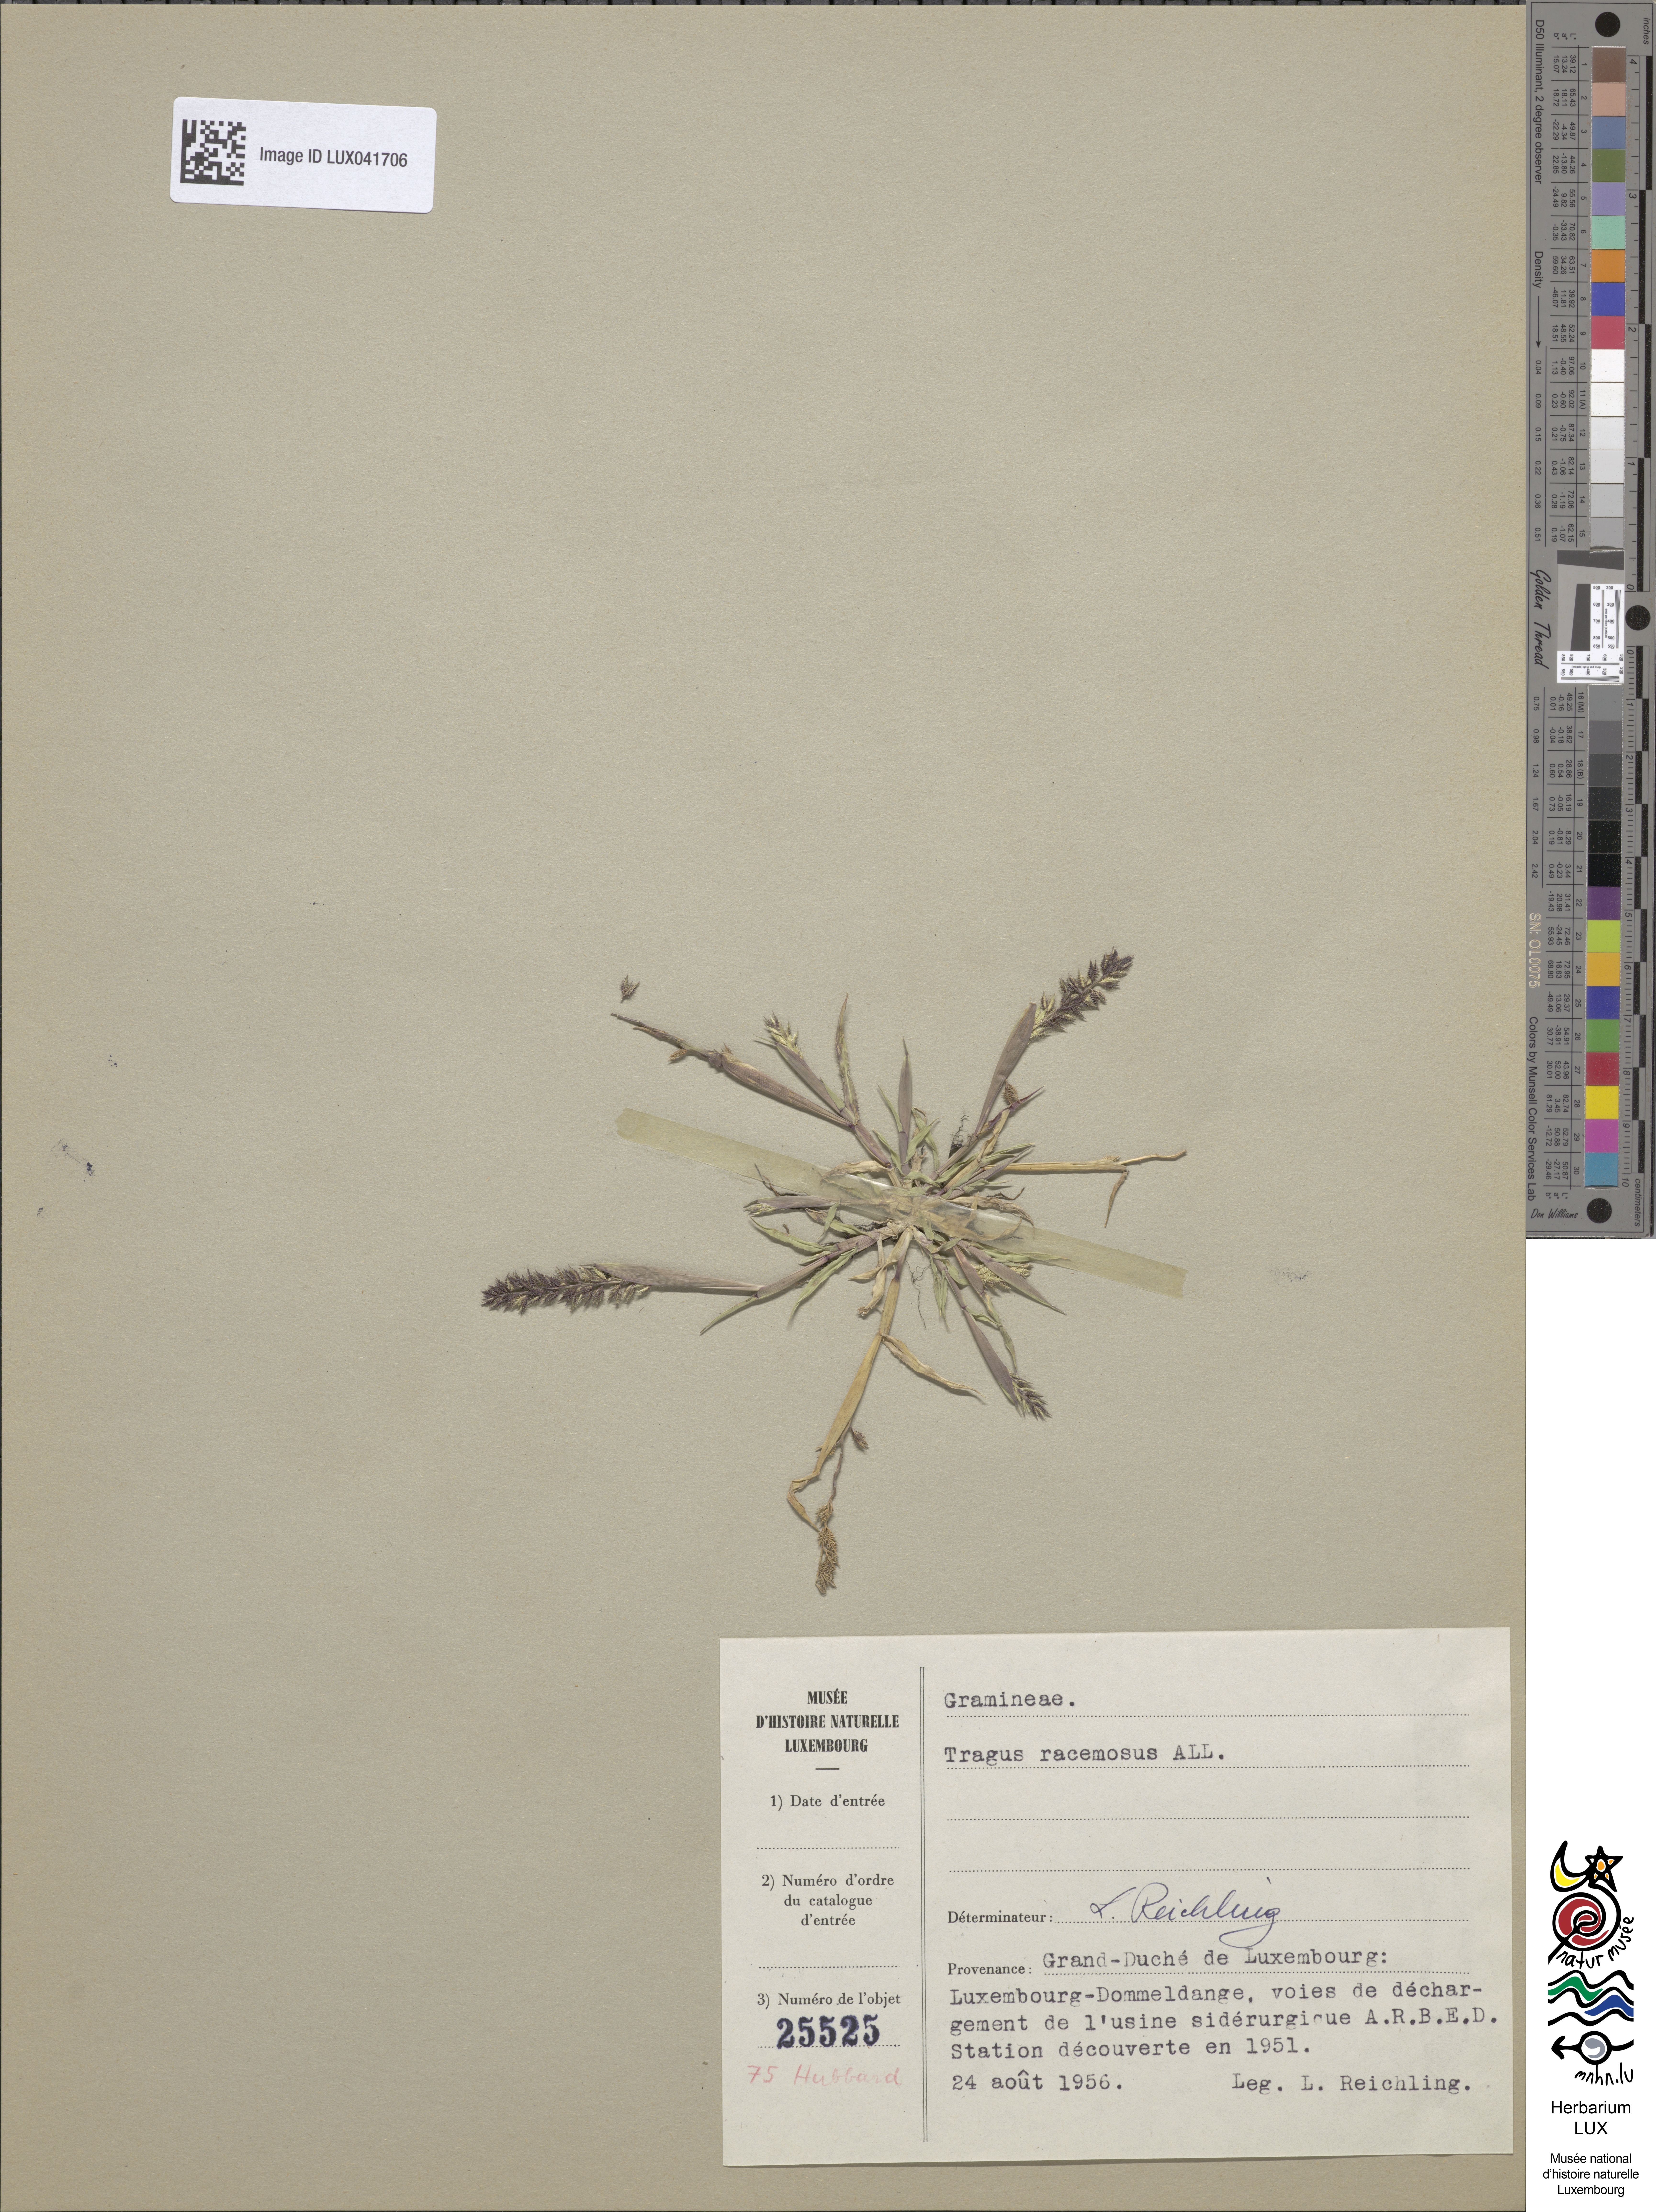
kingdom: Plantae
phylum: Tracheophyta
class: Liliopsida
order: Poales
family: Poaceae
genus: Tragus
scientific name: Tragus racemosus
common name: European bur-grass
